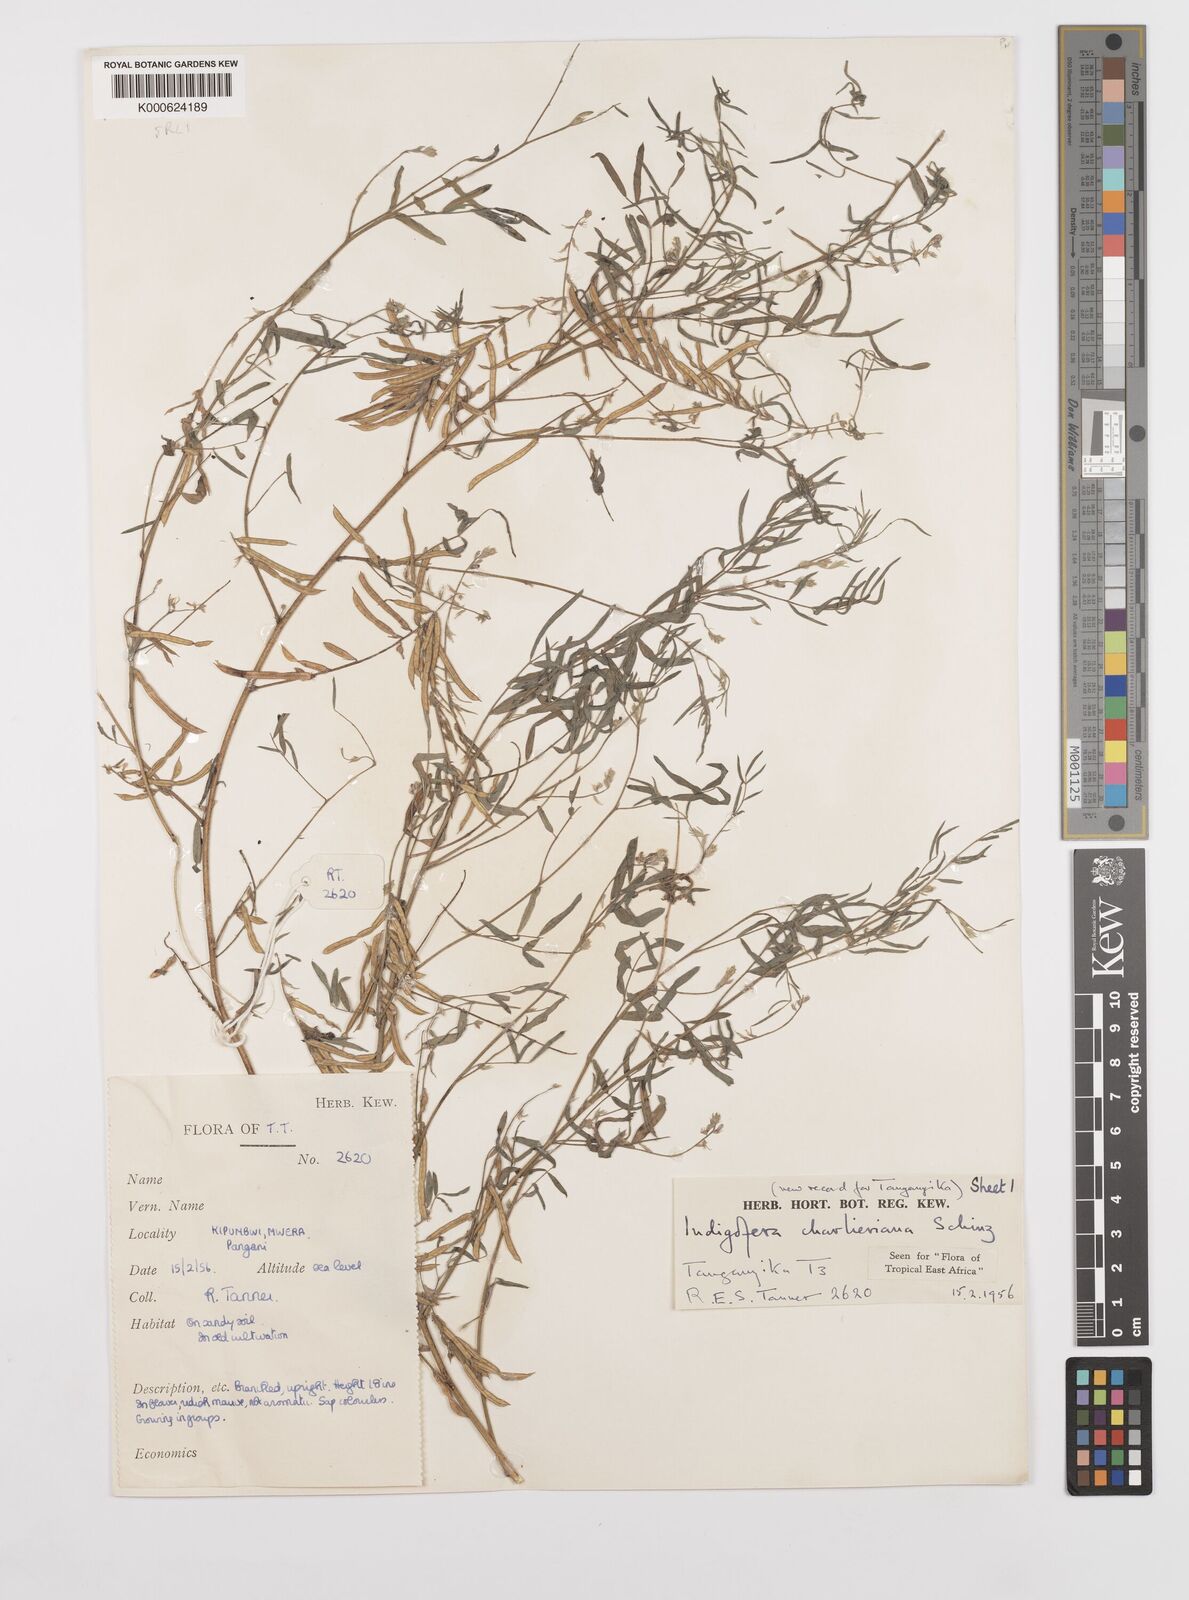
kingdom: Plantae
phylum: Tracheophyta
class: Magnoliopsida
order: Fabales
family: Fabaceae
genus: Indigofera
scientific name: Indigofera charlieriana
